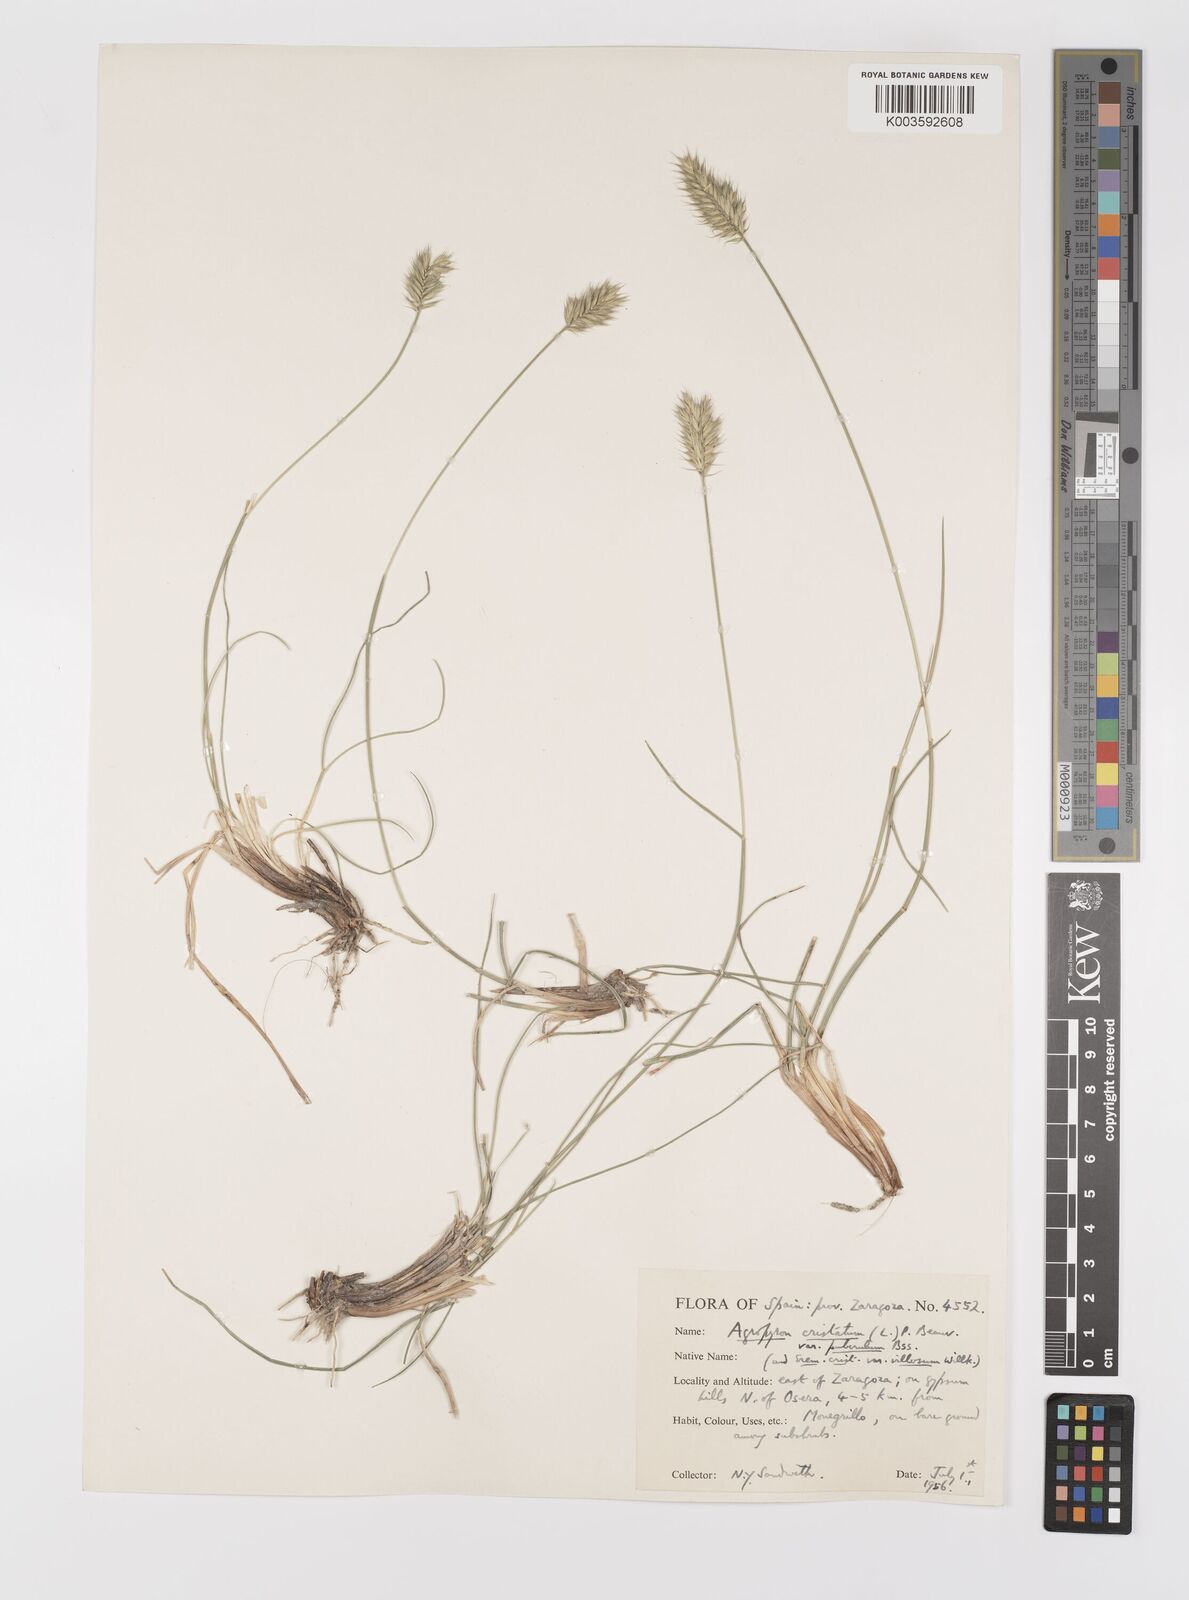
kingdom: Plantae
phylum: Tracheophyta
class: Liliopsida
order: Poales
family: Poaceae
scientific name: Poaceae
